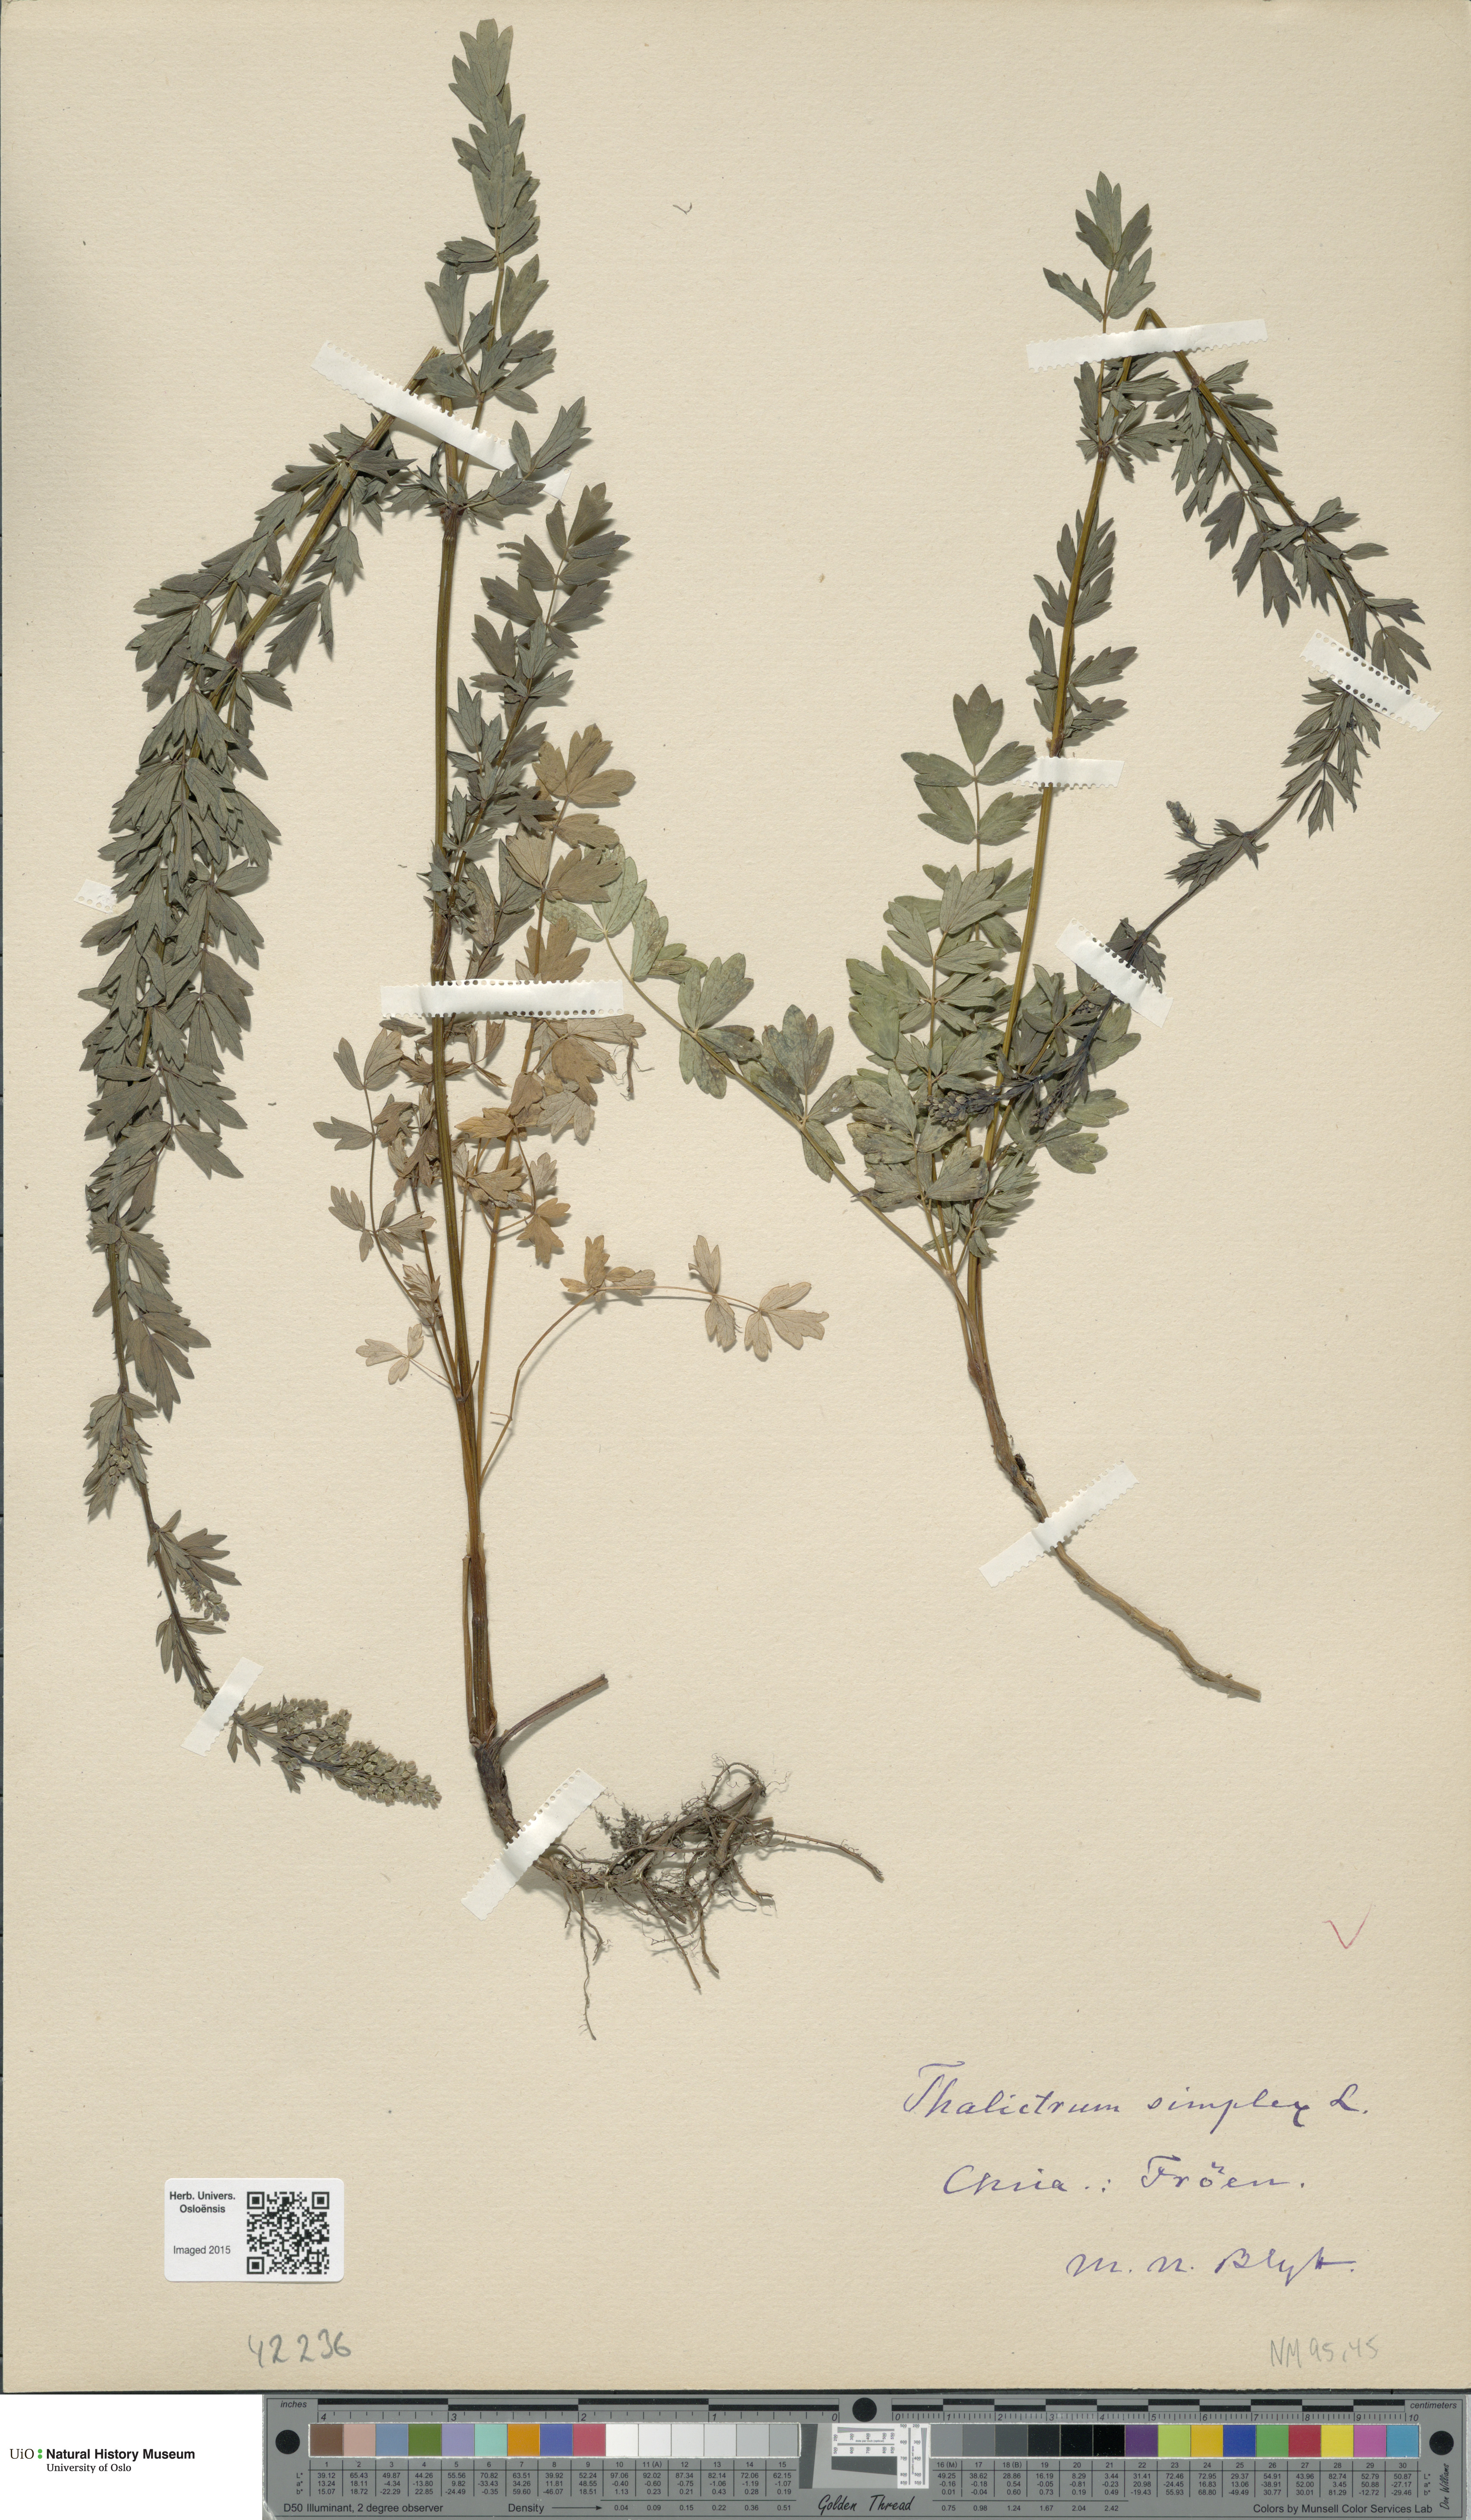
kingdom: Plantae
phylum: Tracheophyta
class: Magnoliopsida
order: Ranunculales
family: Ranunculaceae
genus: Thalictrum
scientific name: Thalictrum simplex
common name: Small meadow-rue
